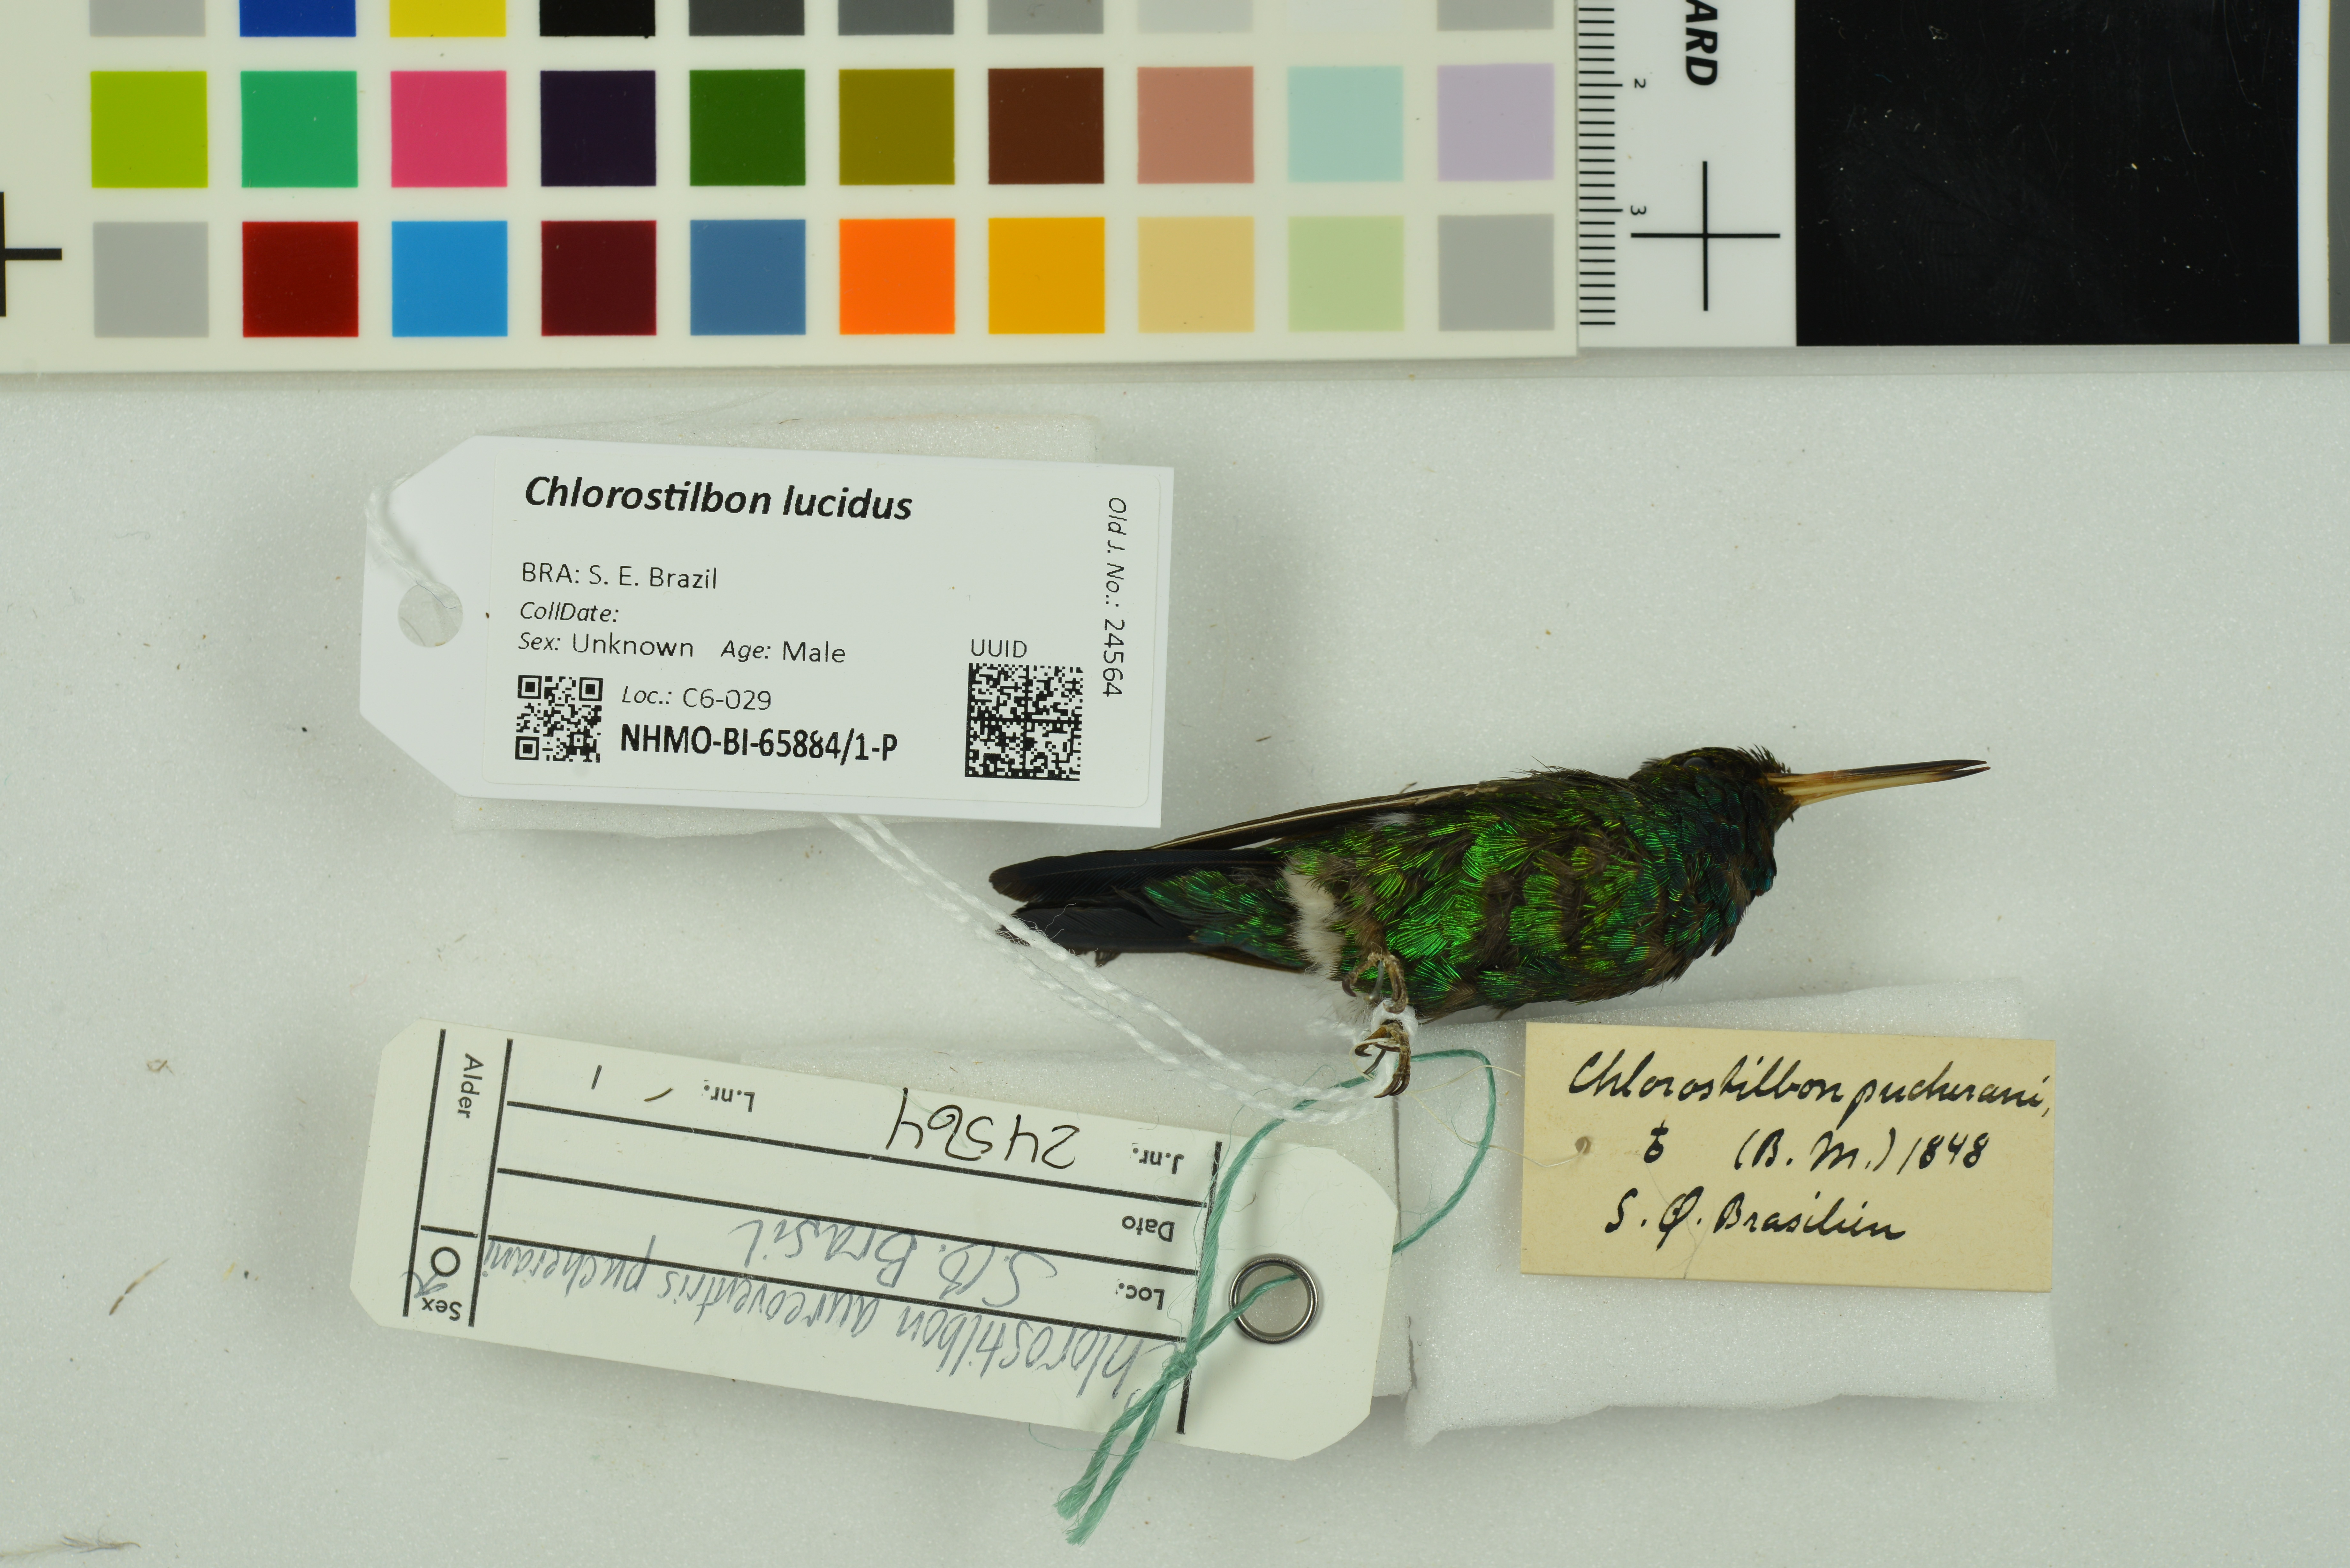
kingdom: Animalia
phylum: Chordata
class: Aves
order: Apodiformes
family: Trochilidae
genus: Chlorostilbon
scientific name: Chlorostilbon lucidus
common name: Glittering-bellied emerald
